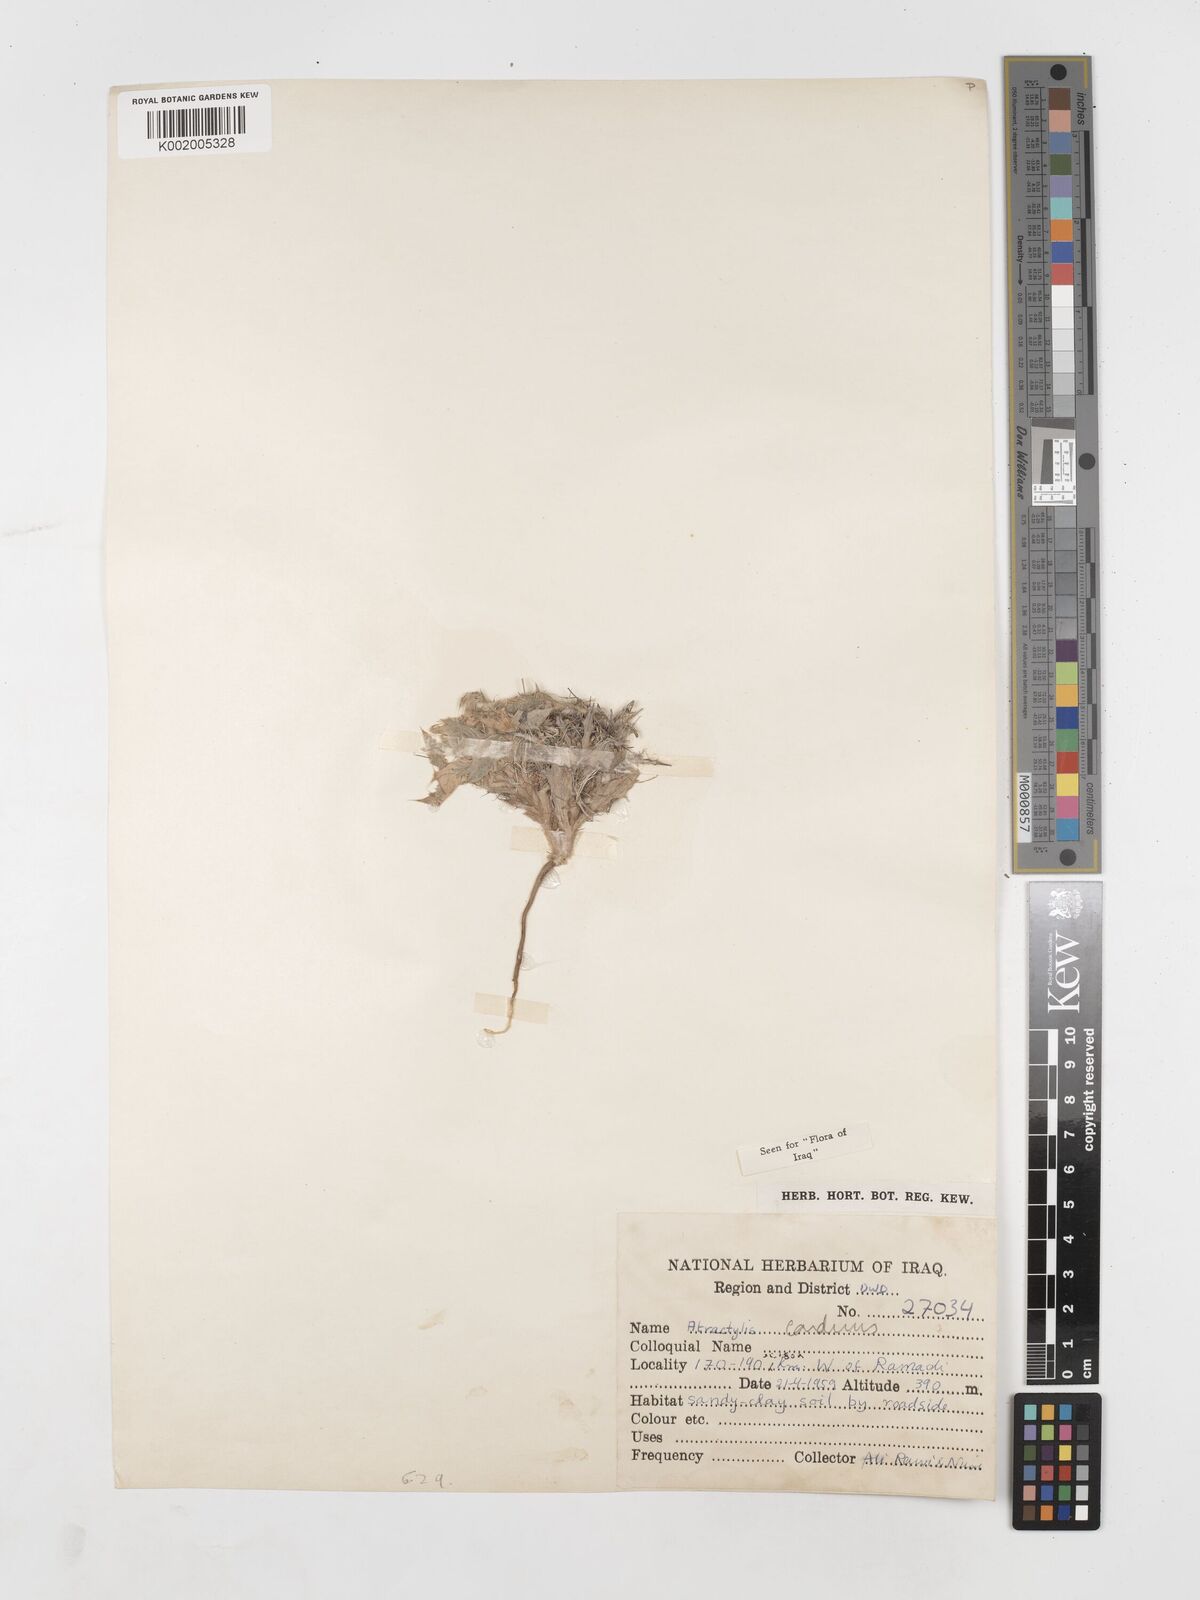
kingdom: Plantae
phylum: Tracheophyta
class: Magnoliopsida
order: Asterales
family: Asteraceae
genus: Atractylis
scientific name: Atractylis carduus
